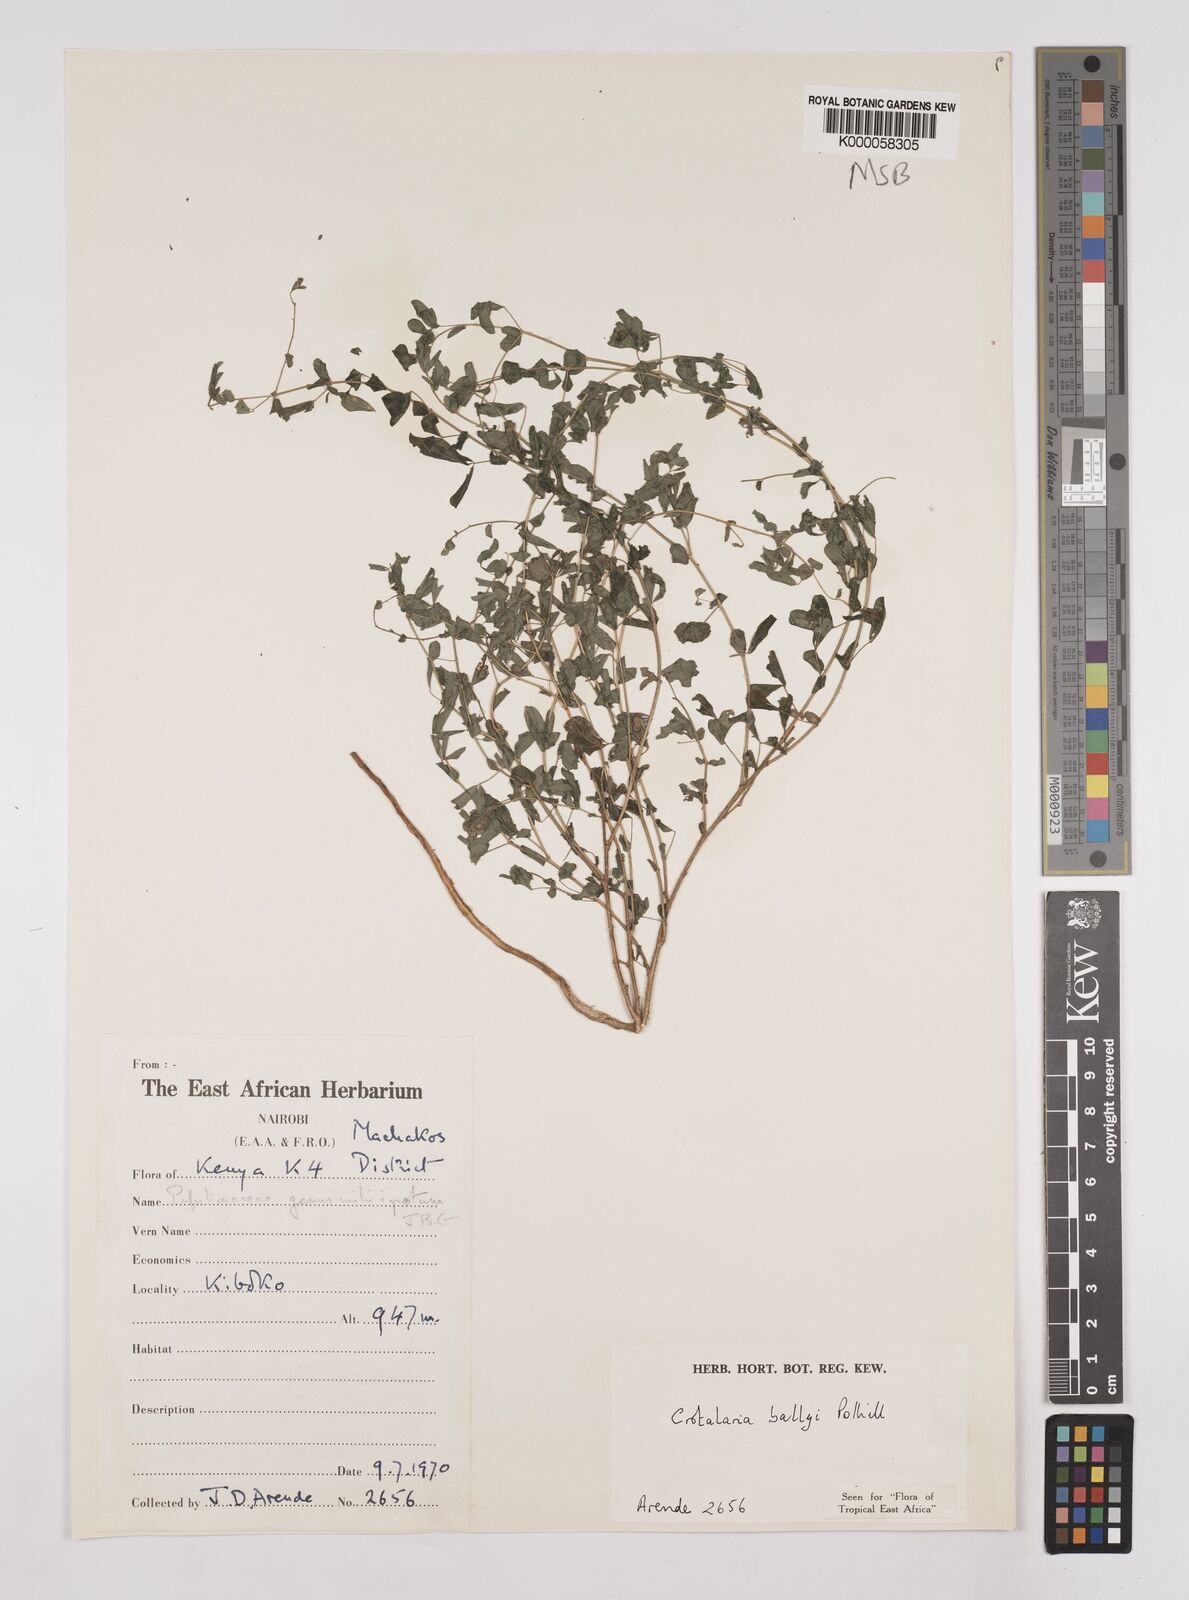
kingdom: Plantae
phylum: Tracheophyta
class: Magnoliopsida
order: Fabales
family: Fabaceae
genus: Crotalaria
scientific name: Crotalaria ballyi
